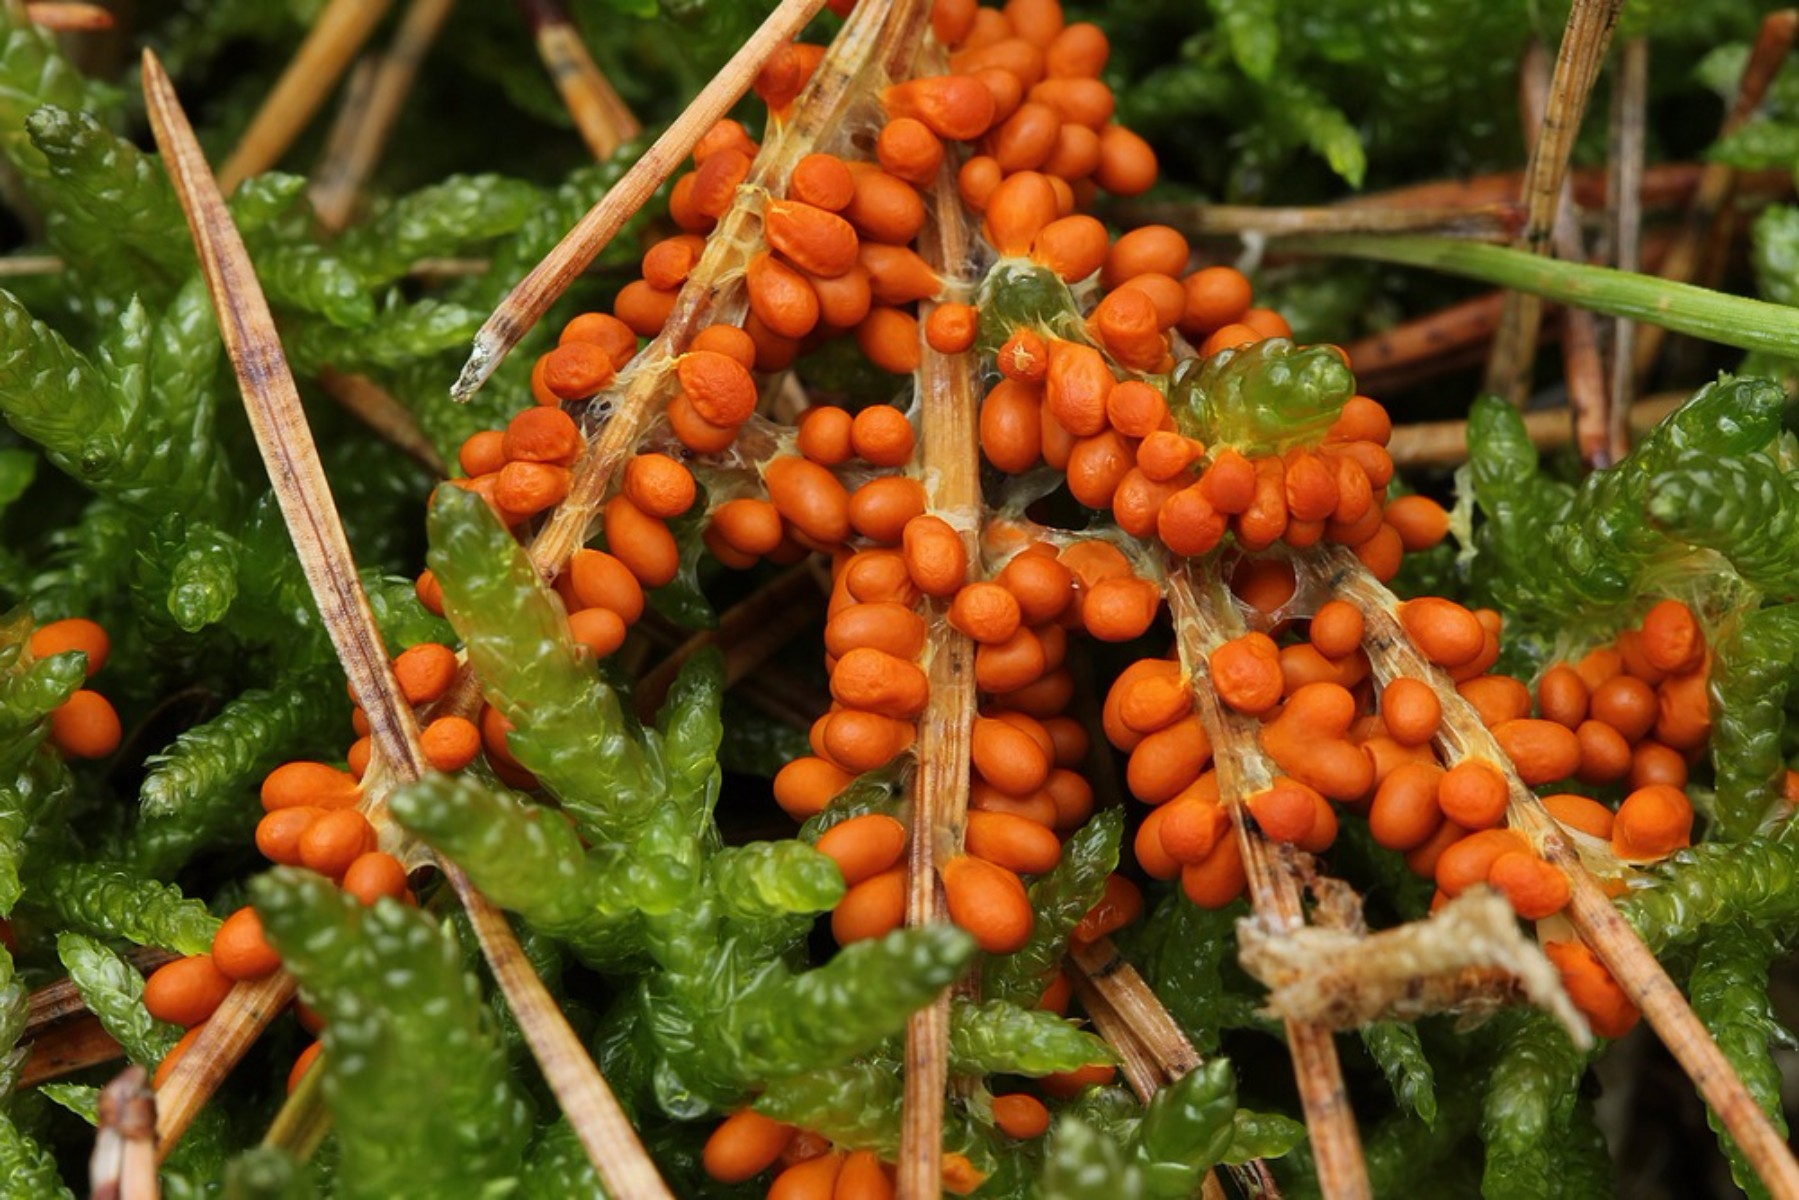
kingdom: Protozoa
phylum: Mycetozoa
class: Myxomycetes
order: Physarales
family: Physaraceae
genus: Leocarpus
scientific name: Leocarpus fragilis
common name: poleret glatfrø
